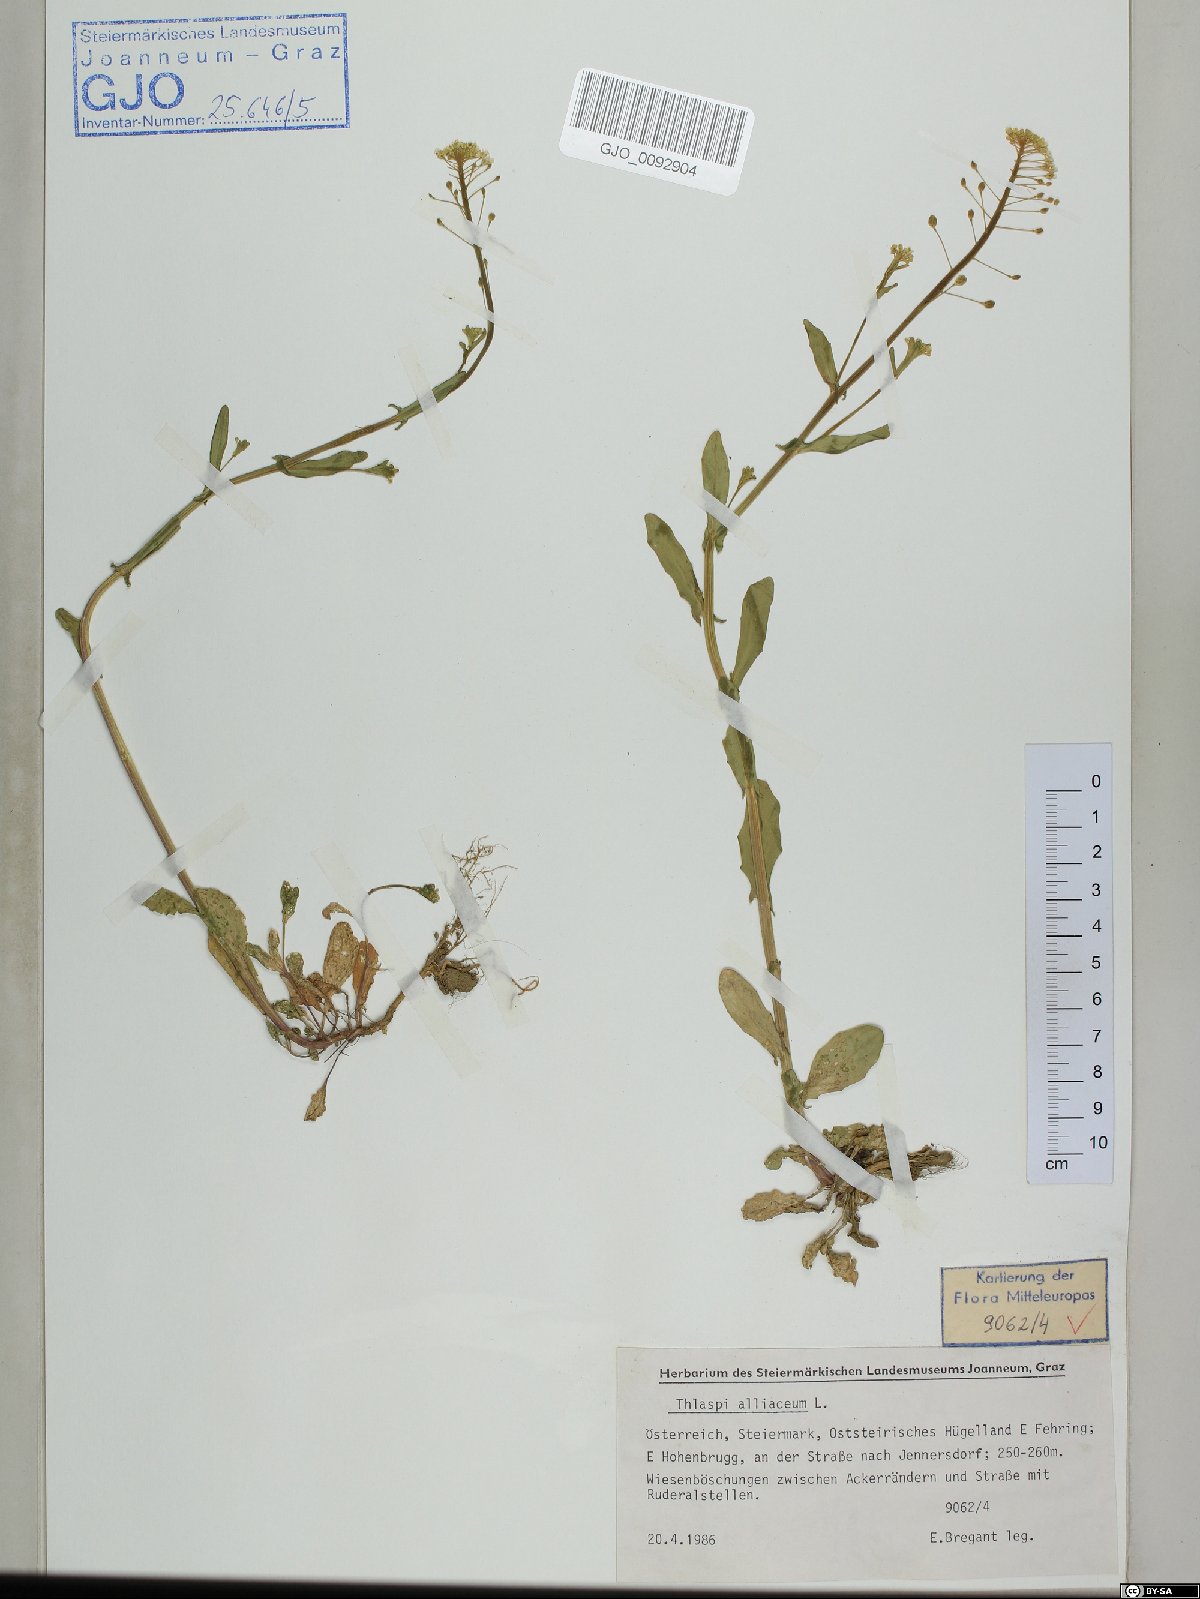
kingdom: Plantae
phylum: Tracheophyta
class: Magnoliopsida
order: Brassicales
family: Brassicaceae
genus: Mummenhoffia
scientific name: Mummenhoffia alliacea
